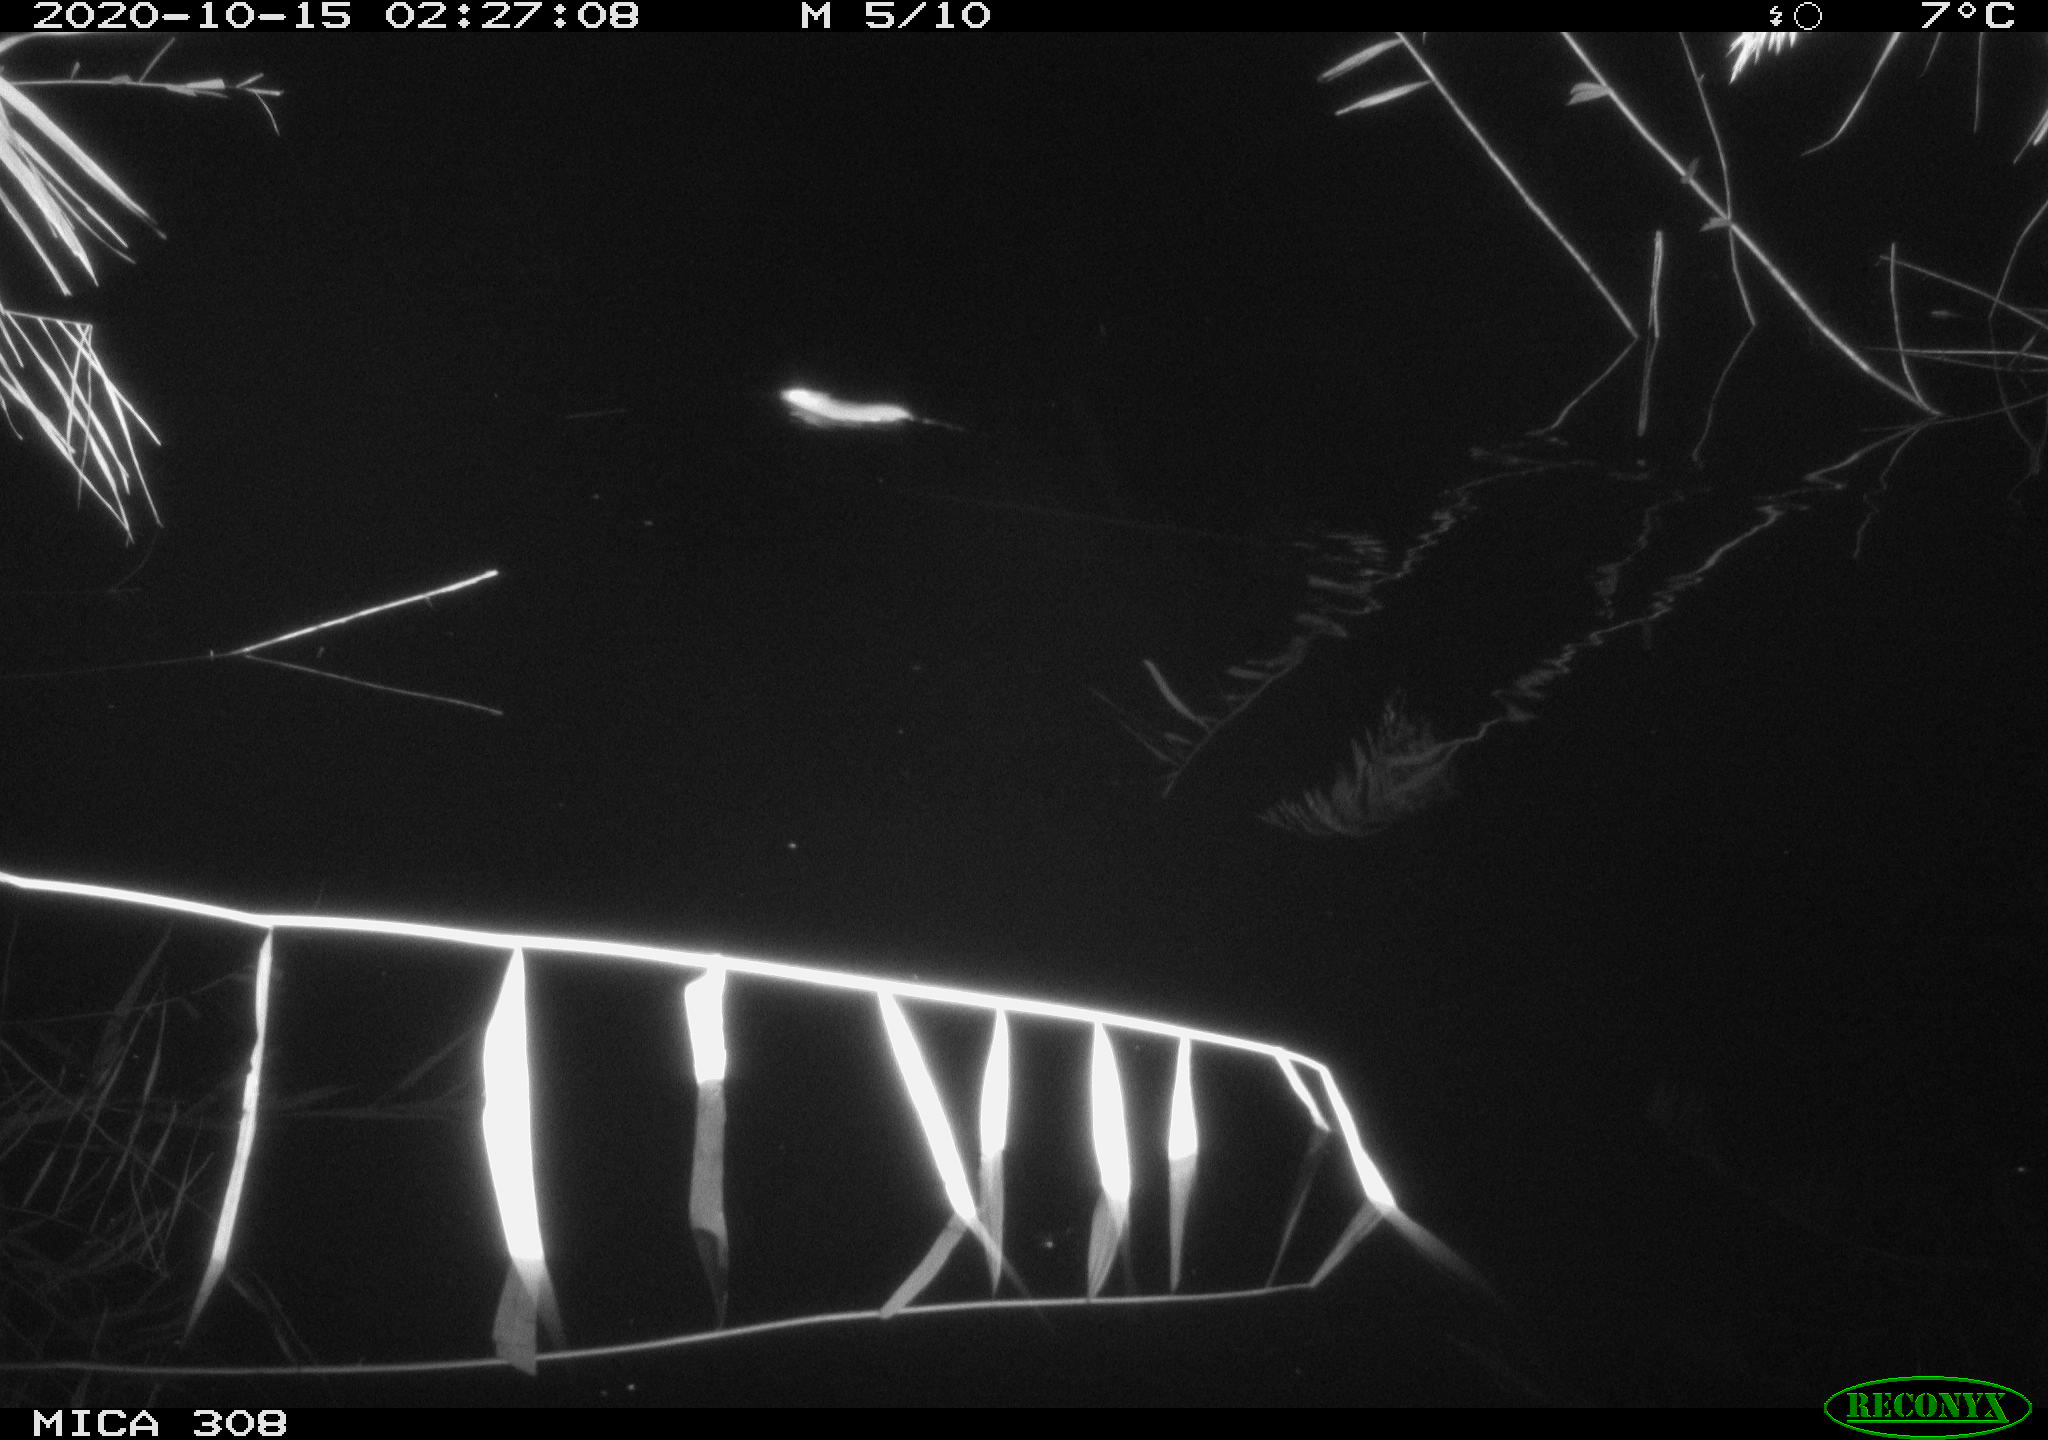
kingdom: Animalia
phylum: Chordata
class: Mammalia
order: Rodentia
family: Muridae
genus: Rattus
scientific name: Rattus norvegicus
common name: Brown rat
